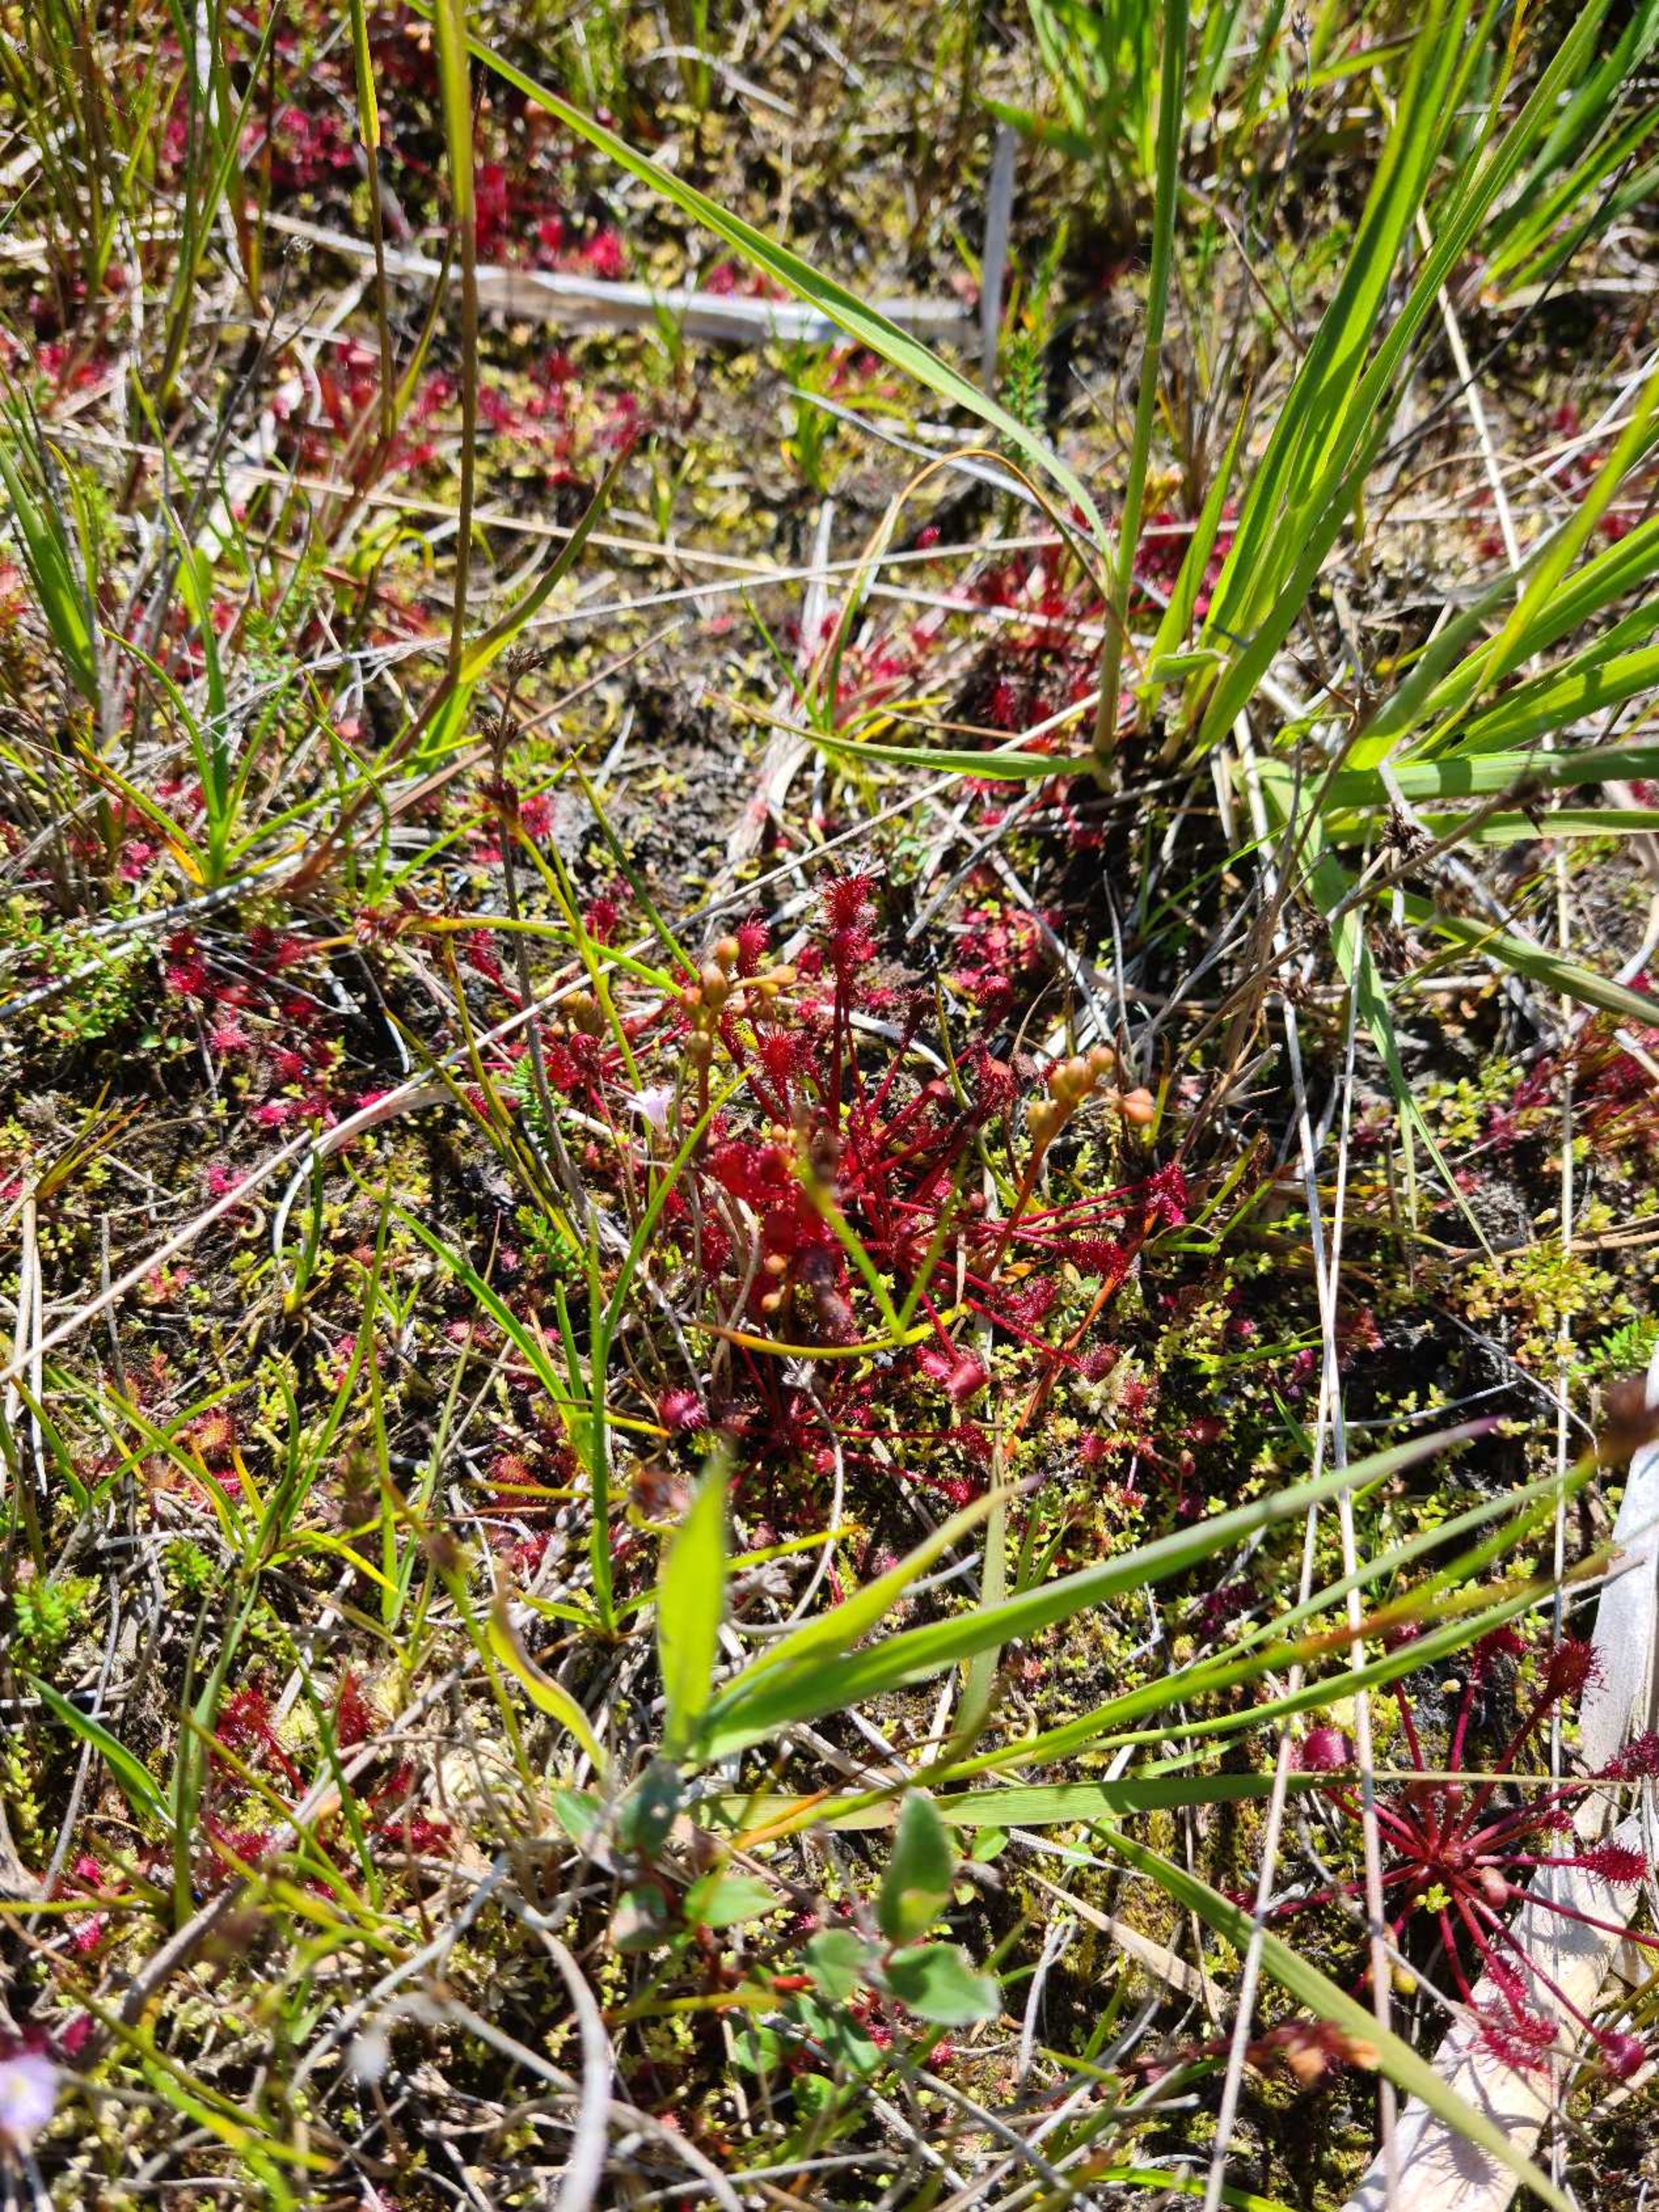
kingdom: Plantae
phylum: Tracheophyta
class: Magnoliopsida
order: Caryophyllales
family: Droseraceae
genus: Drosera
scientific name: Drosera intermedia
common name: Liden soldug
